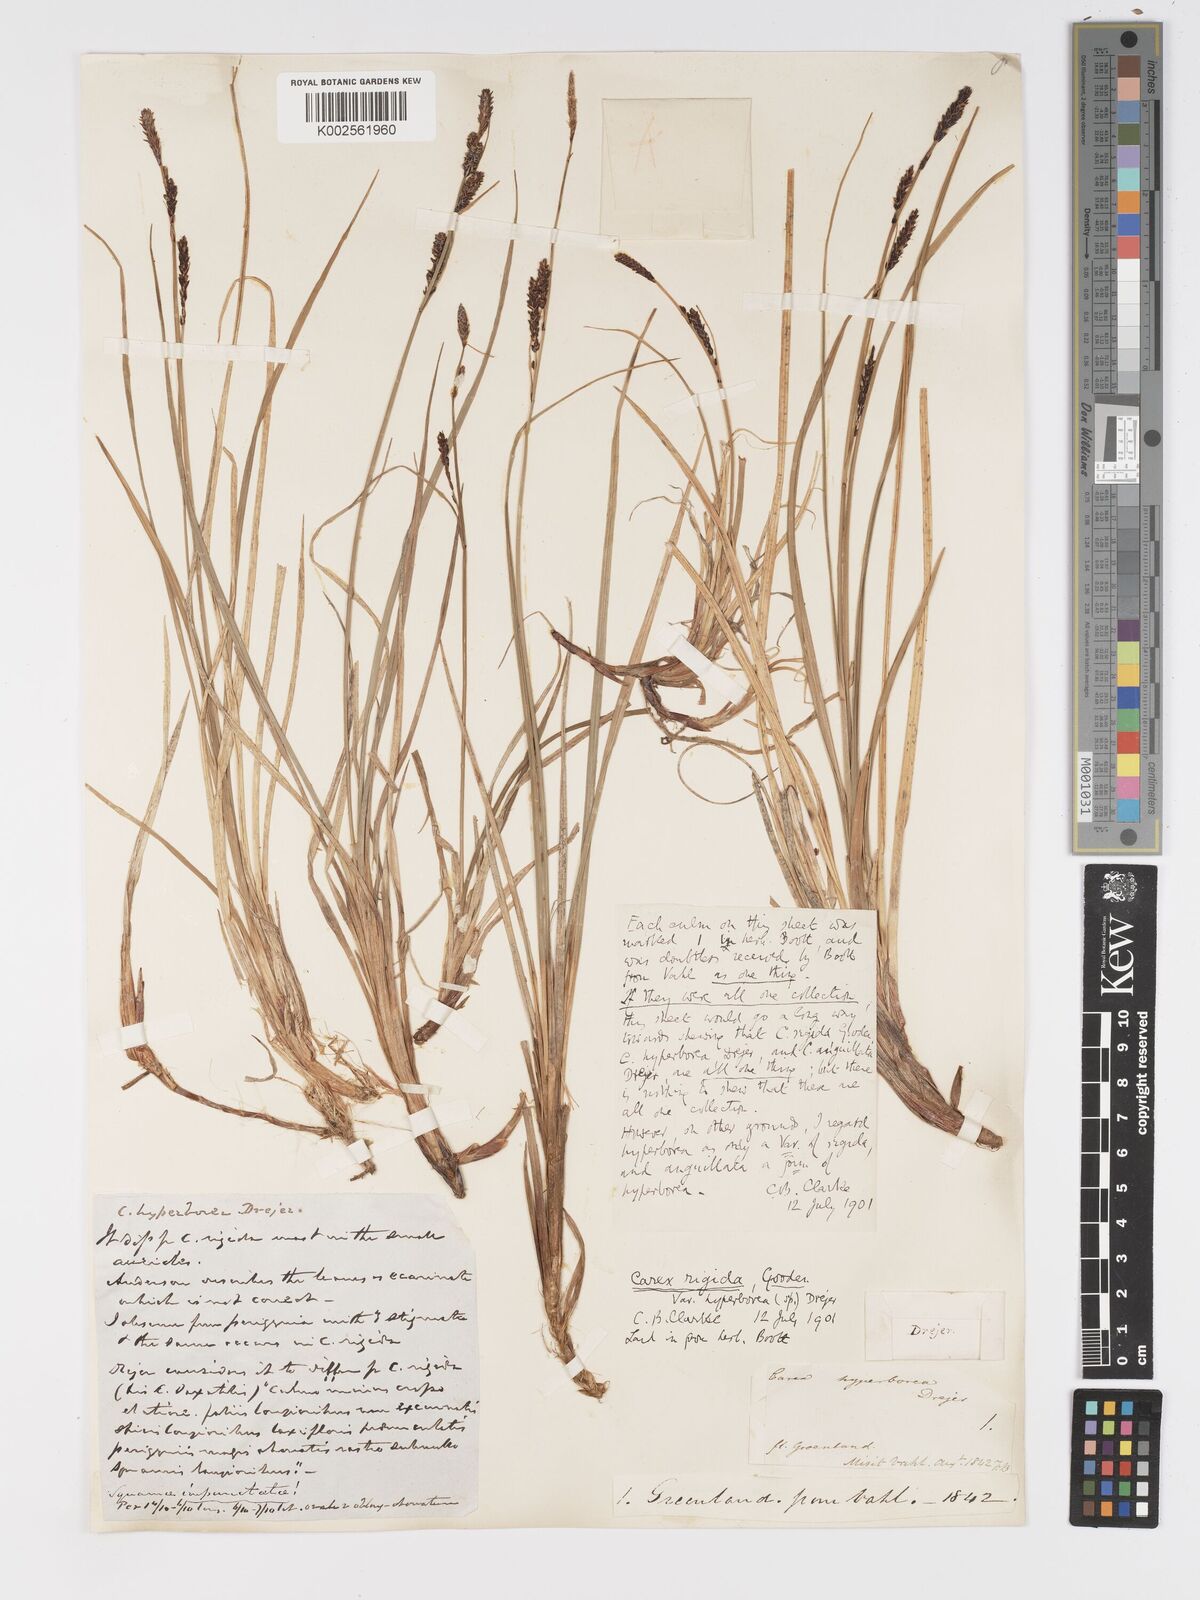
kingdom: Plantae
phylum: Tracheophyta
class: Liliopsida
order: Poales
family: Cyperaceae
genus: Carex
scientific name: Carex bigelowii
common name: Stiff sedge
